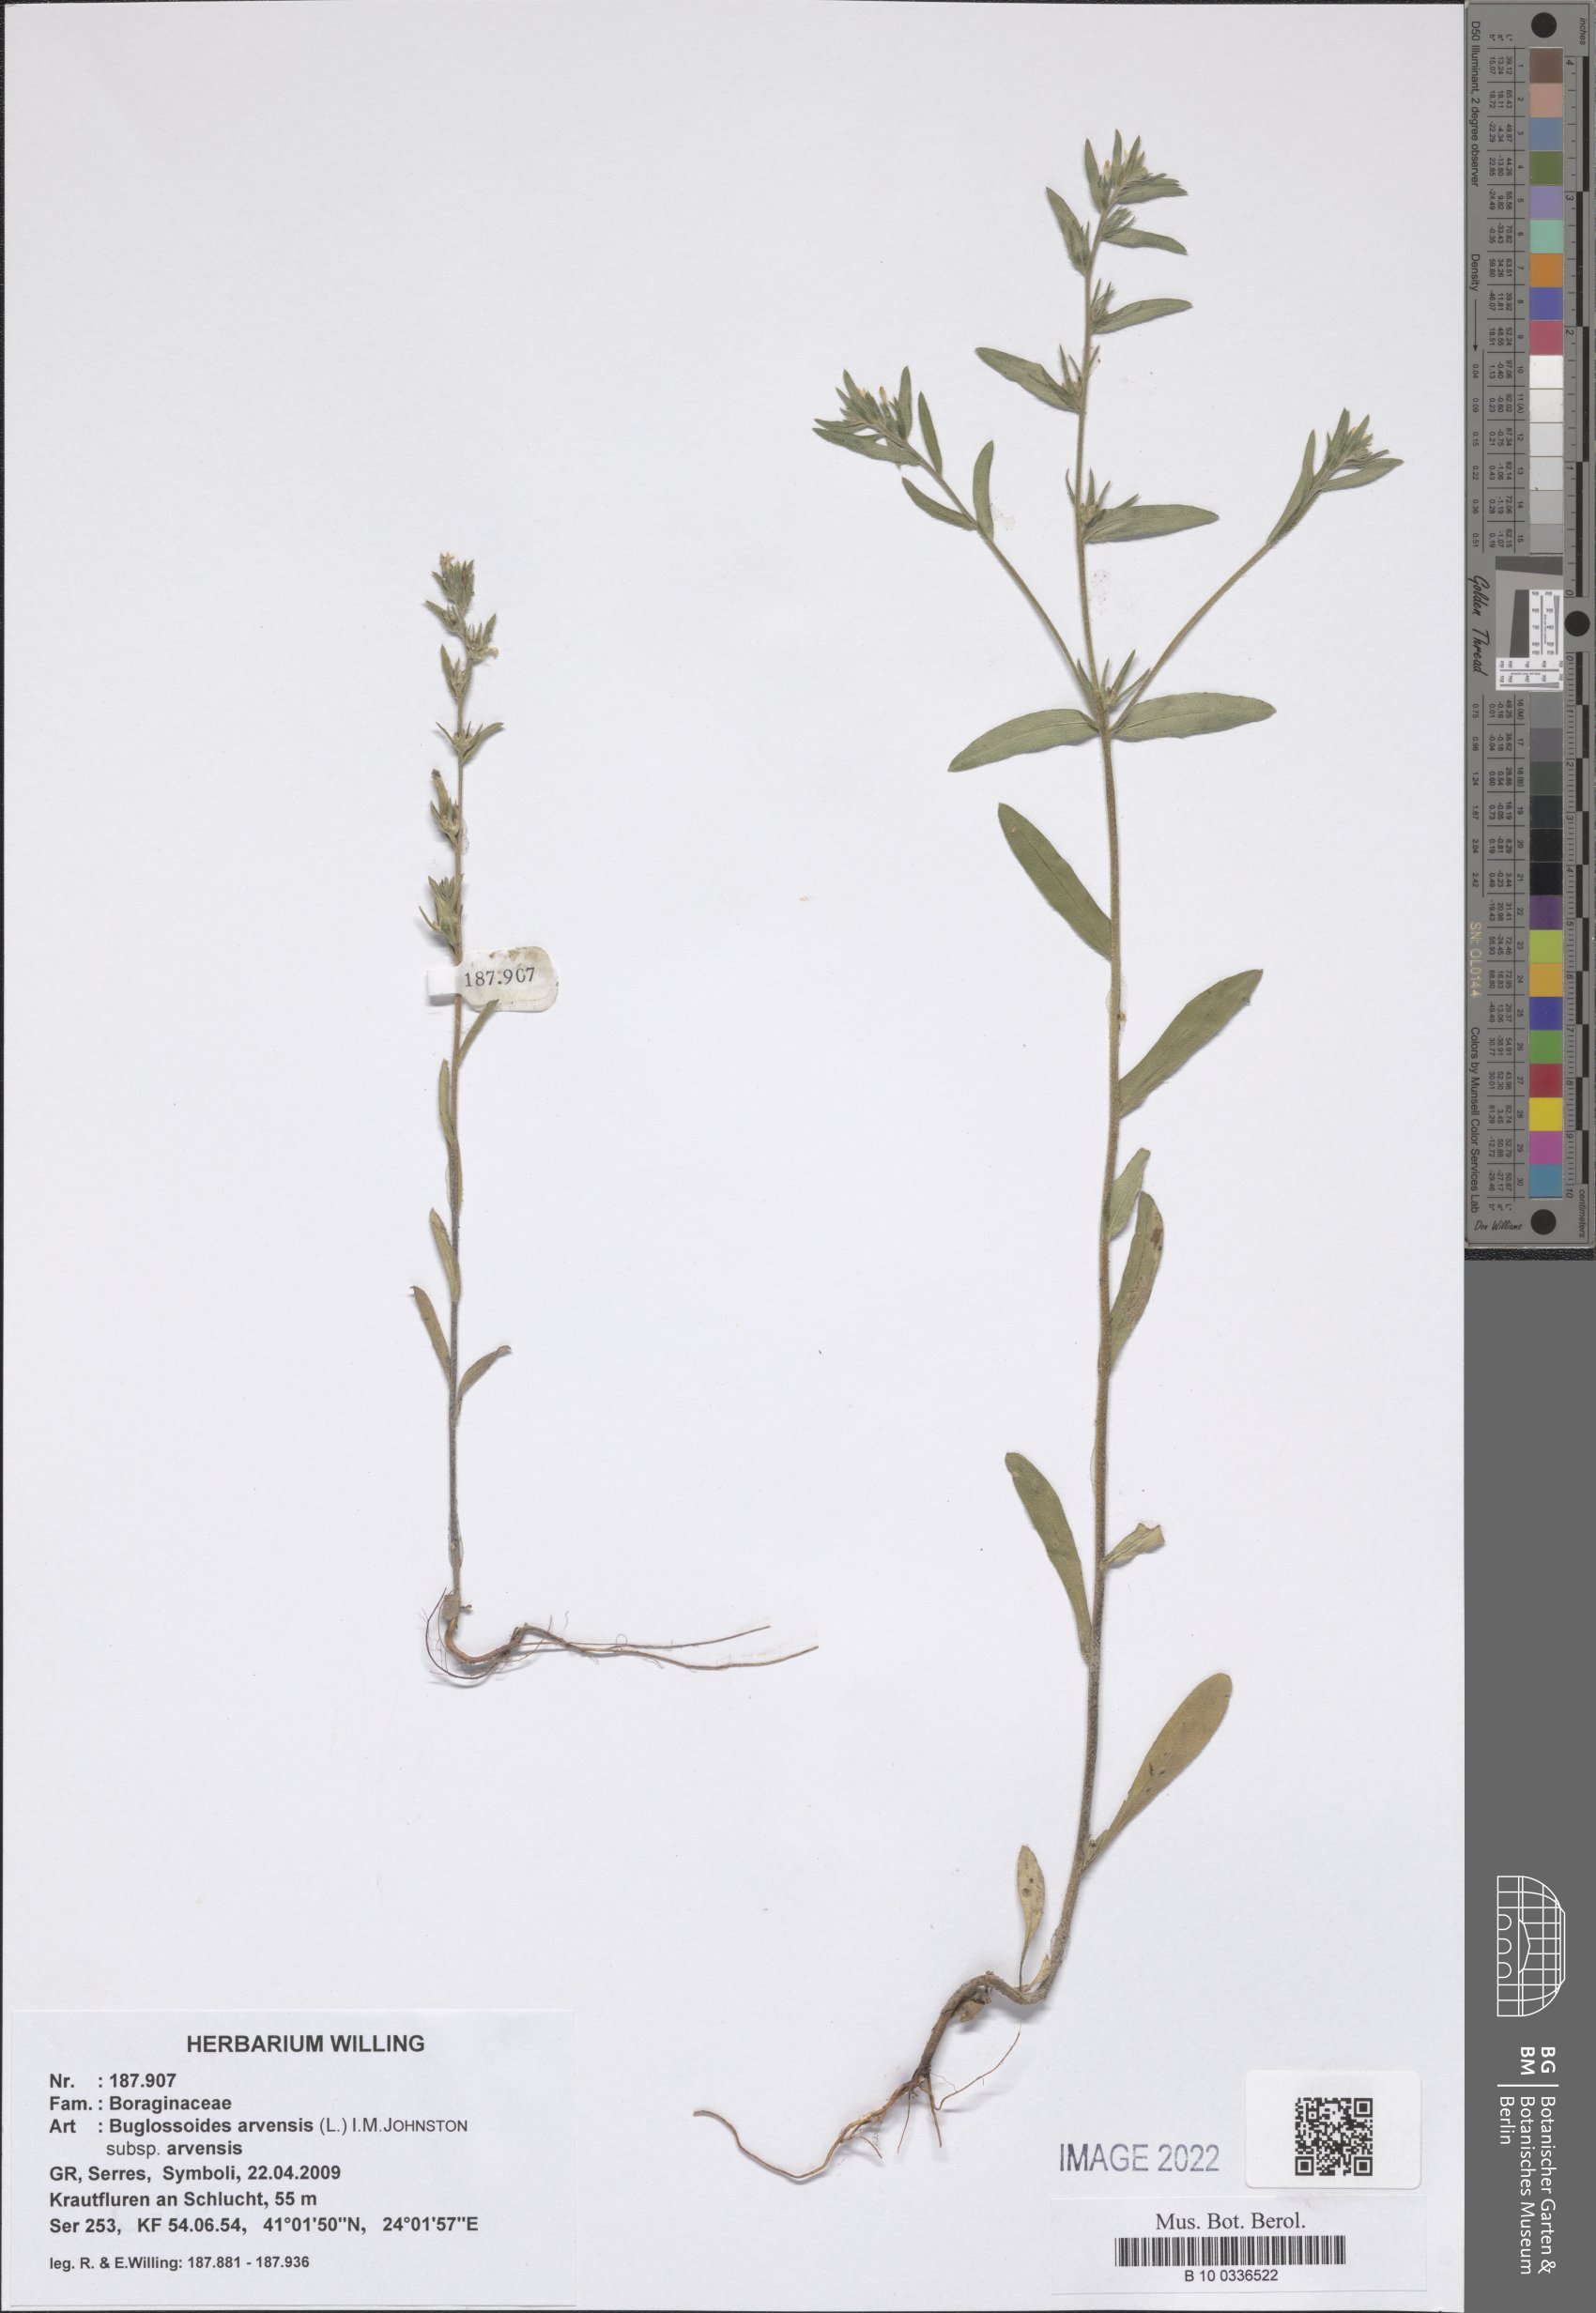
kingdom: Plantae
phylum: Tracheophyta
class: Magnoliopsida
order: Boraginales
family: Boraginaceae
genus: Buglossoides
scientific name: Buglossoides arvensis
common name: Corn gromwell
